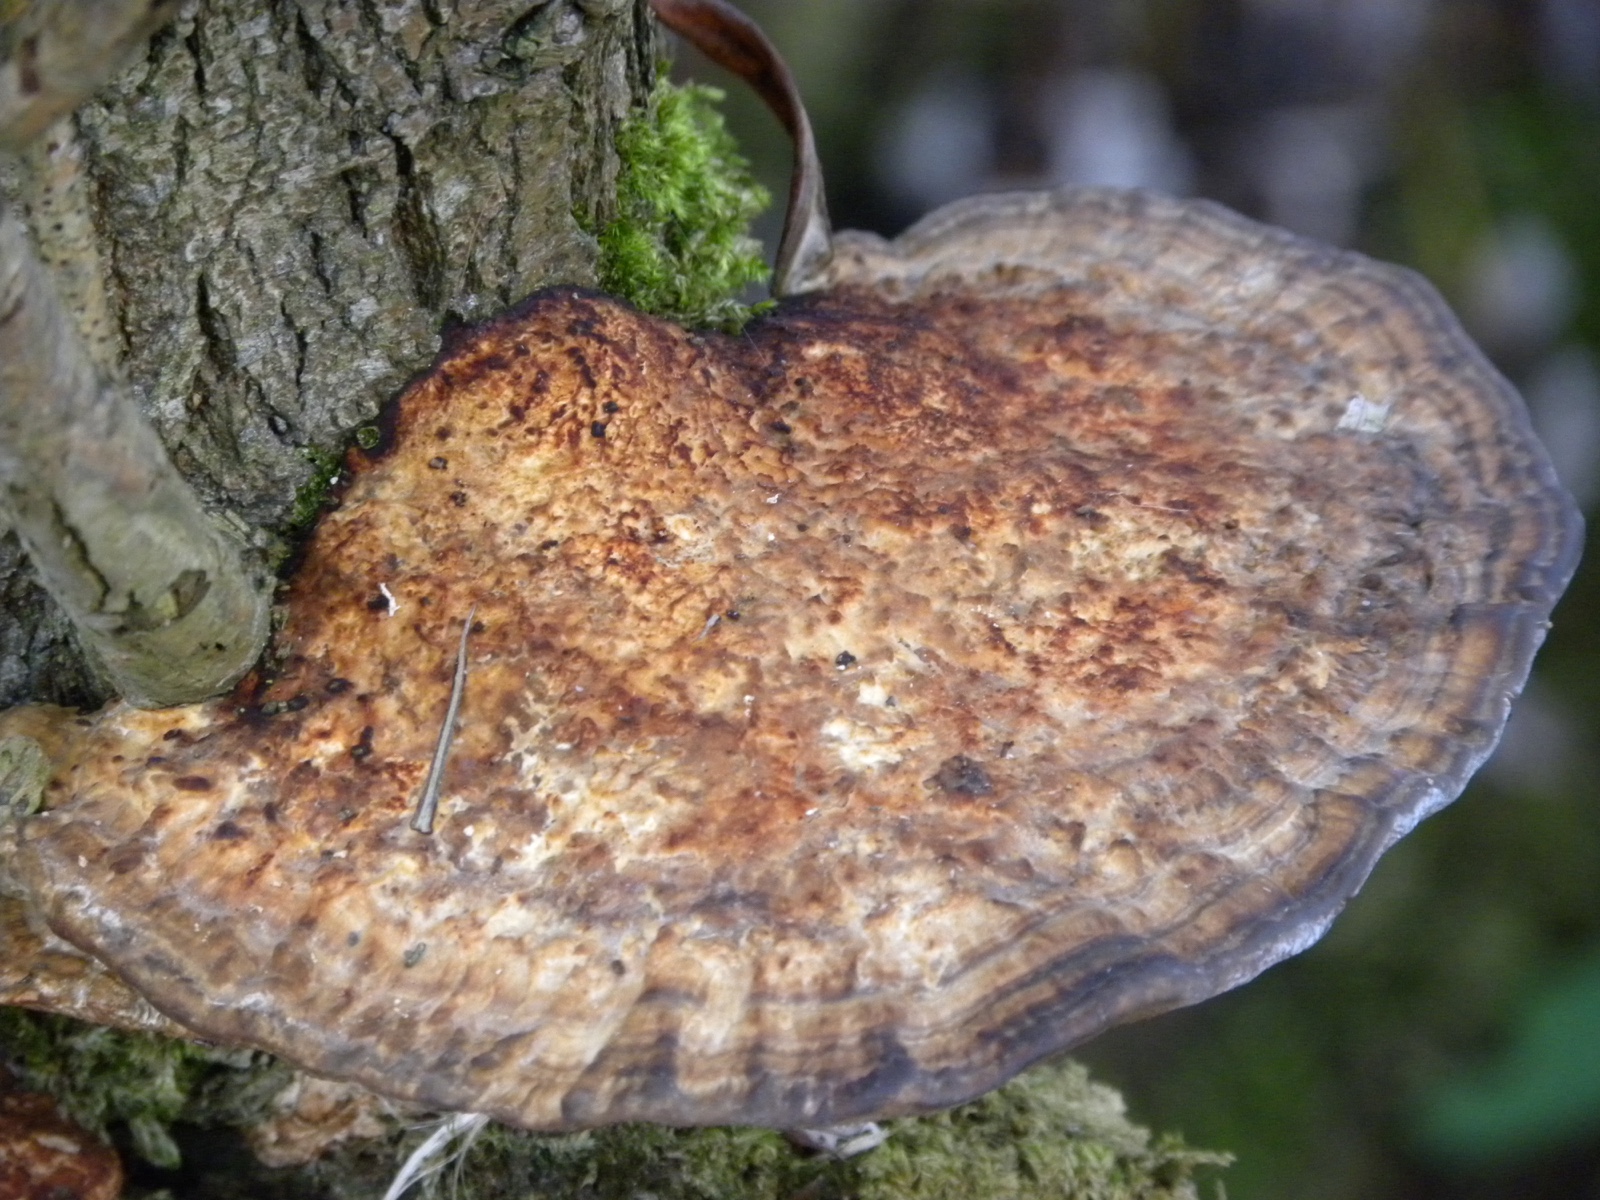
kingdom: Fungi
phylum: Basidiomycota
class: Agaricomycetes
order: Polyporales
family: Polyporaceae
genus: Daedaleopsis
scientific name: Daedaleopsis confragosa
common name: rødmende læderporesvamp
